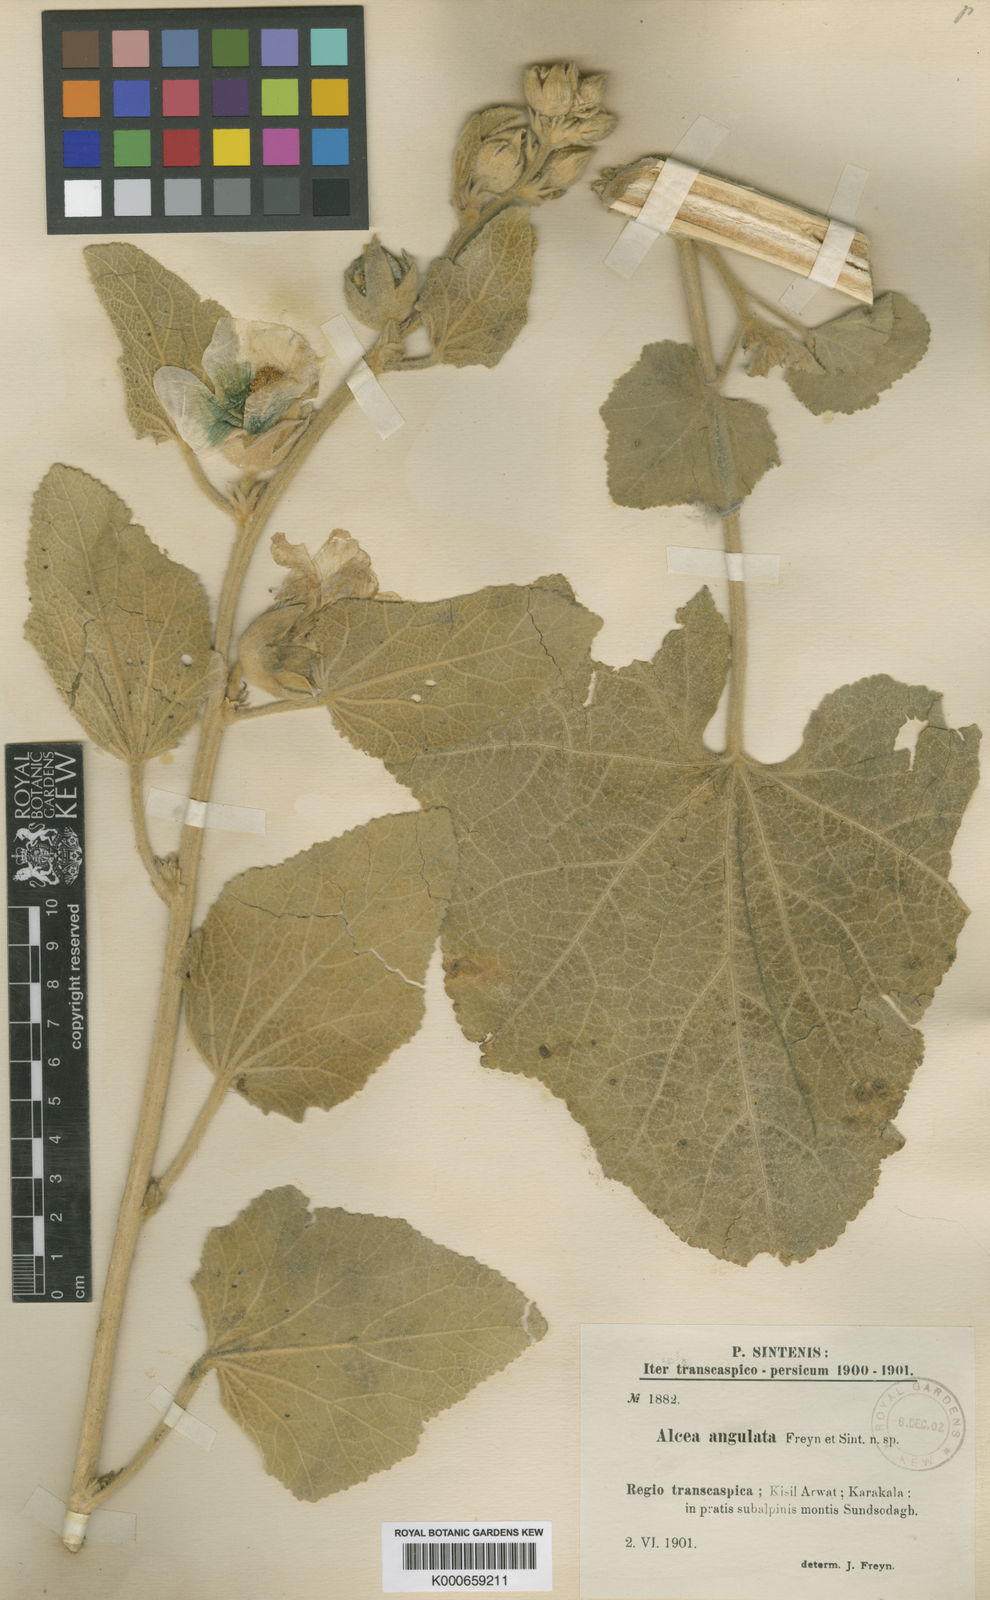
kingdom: Plantae
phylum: Tracheophyta
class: Magnoliopsida
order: Malvales
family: Malvaceae
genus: Alcea
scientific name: Alcea
